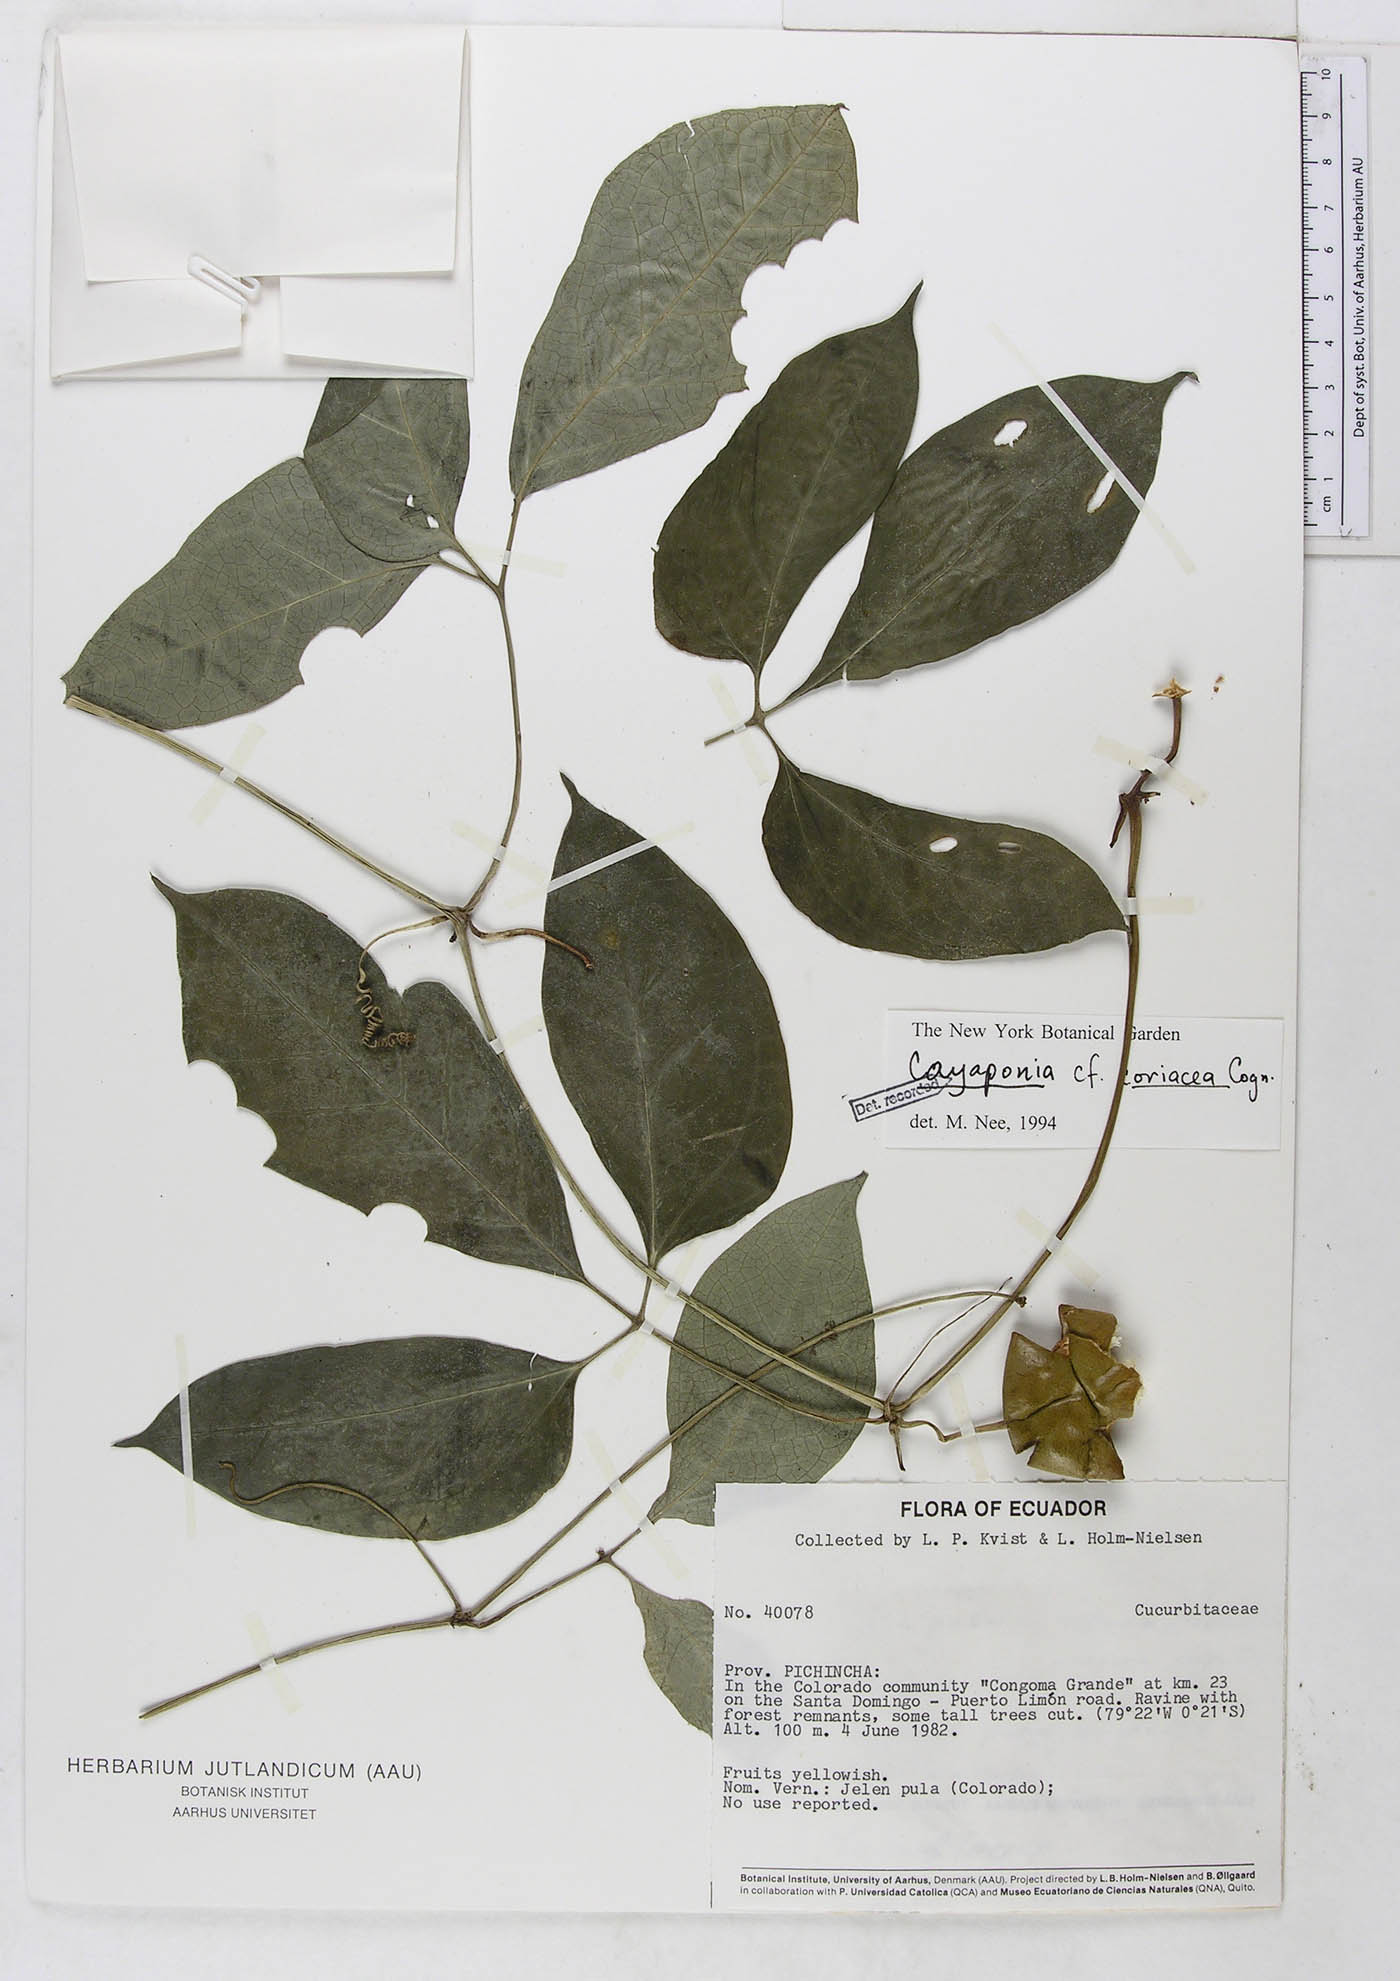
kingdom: Plantae
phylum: Tracheophyta
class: Magnoliopsida
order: Cucurbitales
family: Cucurbitaceae
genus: Cayaponia
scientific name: Cayaponia hammelii
